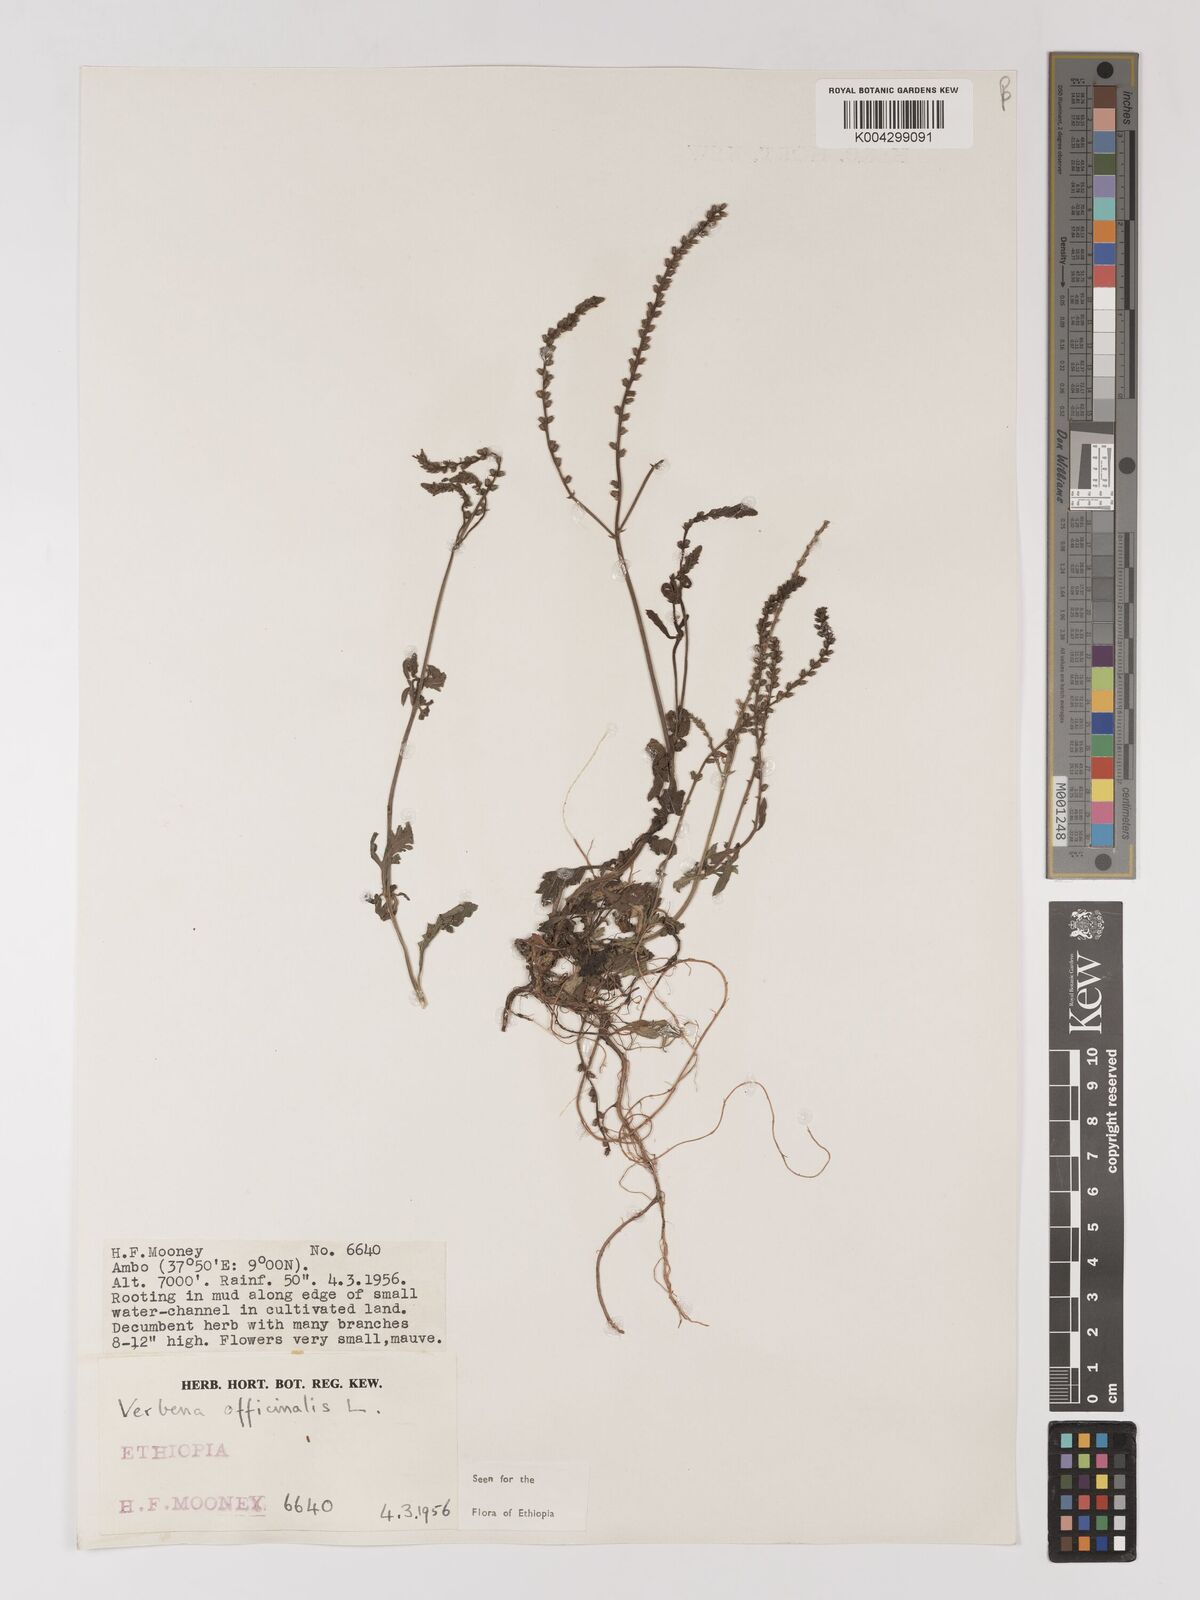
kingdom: Plantae
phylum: Tracheophyta
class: Magnoliopsida
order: Lamiales
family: Verbenaceae
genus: Verbena
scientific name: Verbena officinalis
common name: Vervain
